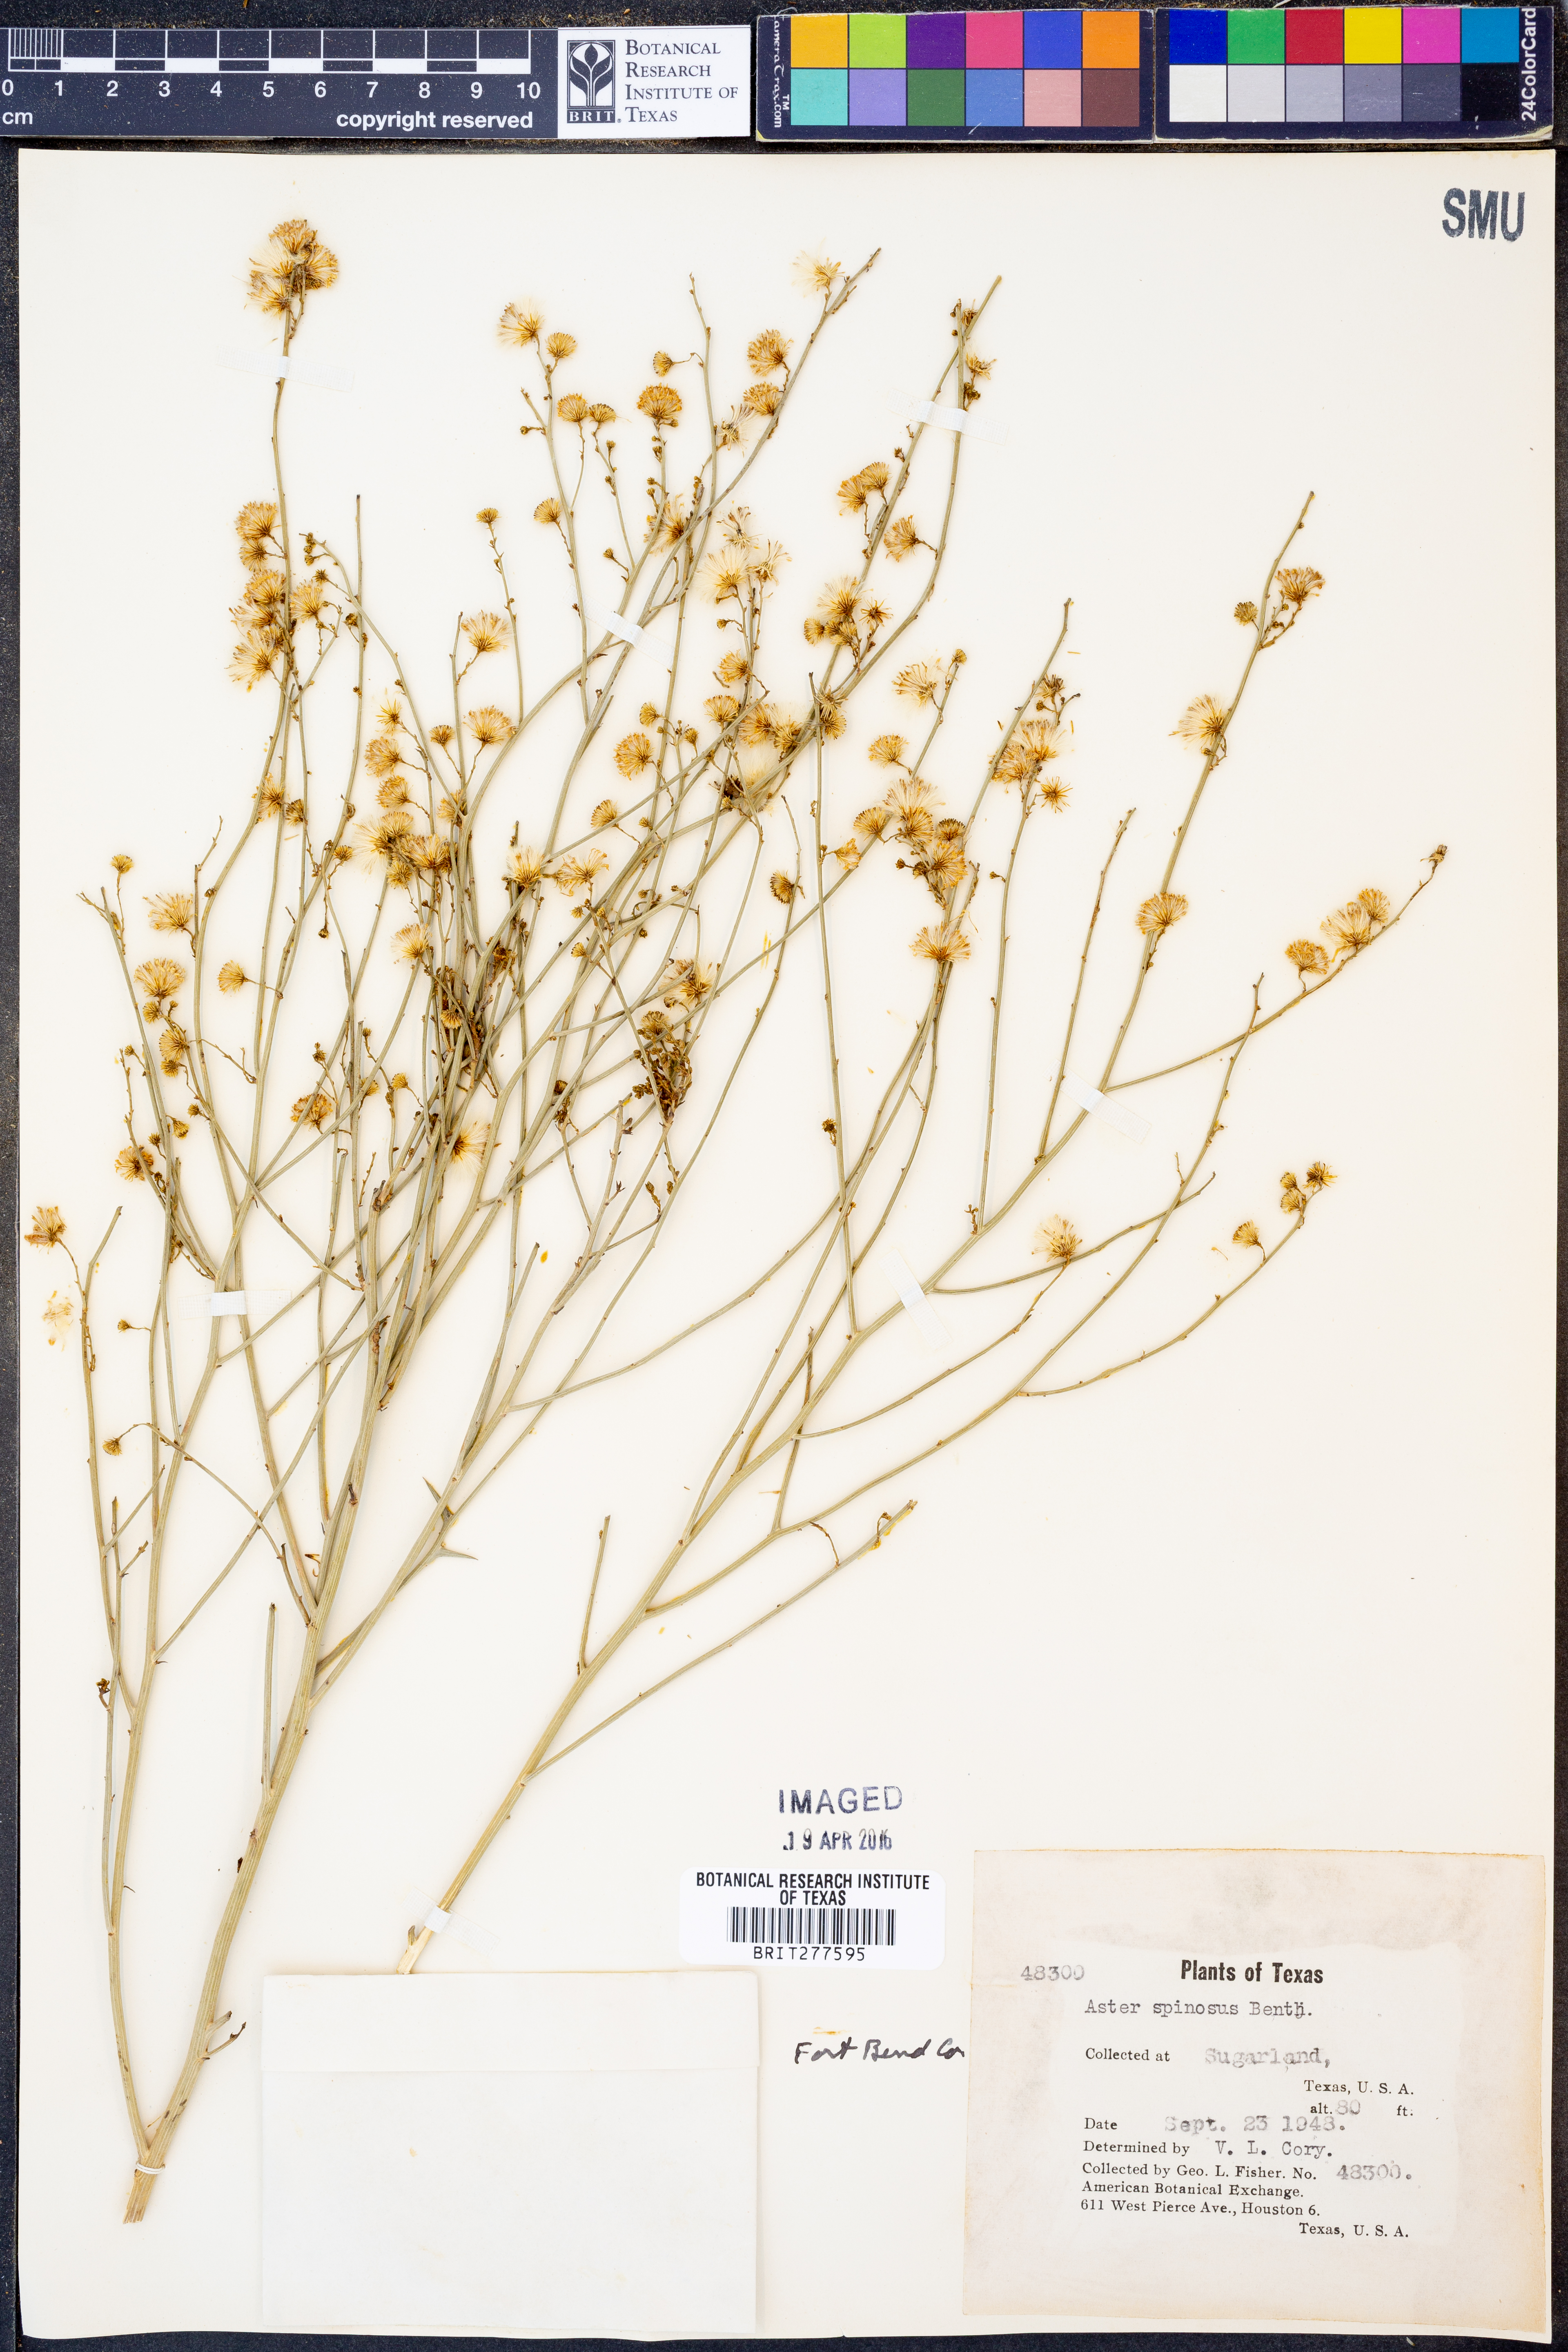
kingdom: Plantae
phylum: Tracheophyta
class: Magnoliopsida
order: Asterales
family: Asteraceae
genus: Chloracantha
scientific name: Chloracantha spinosa
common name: Mexican devilweed
